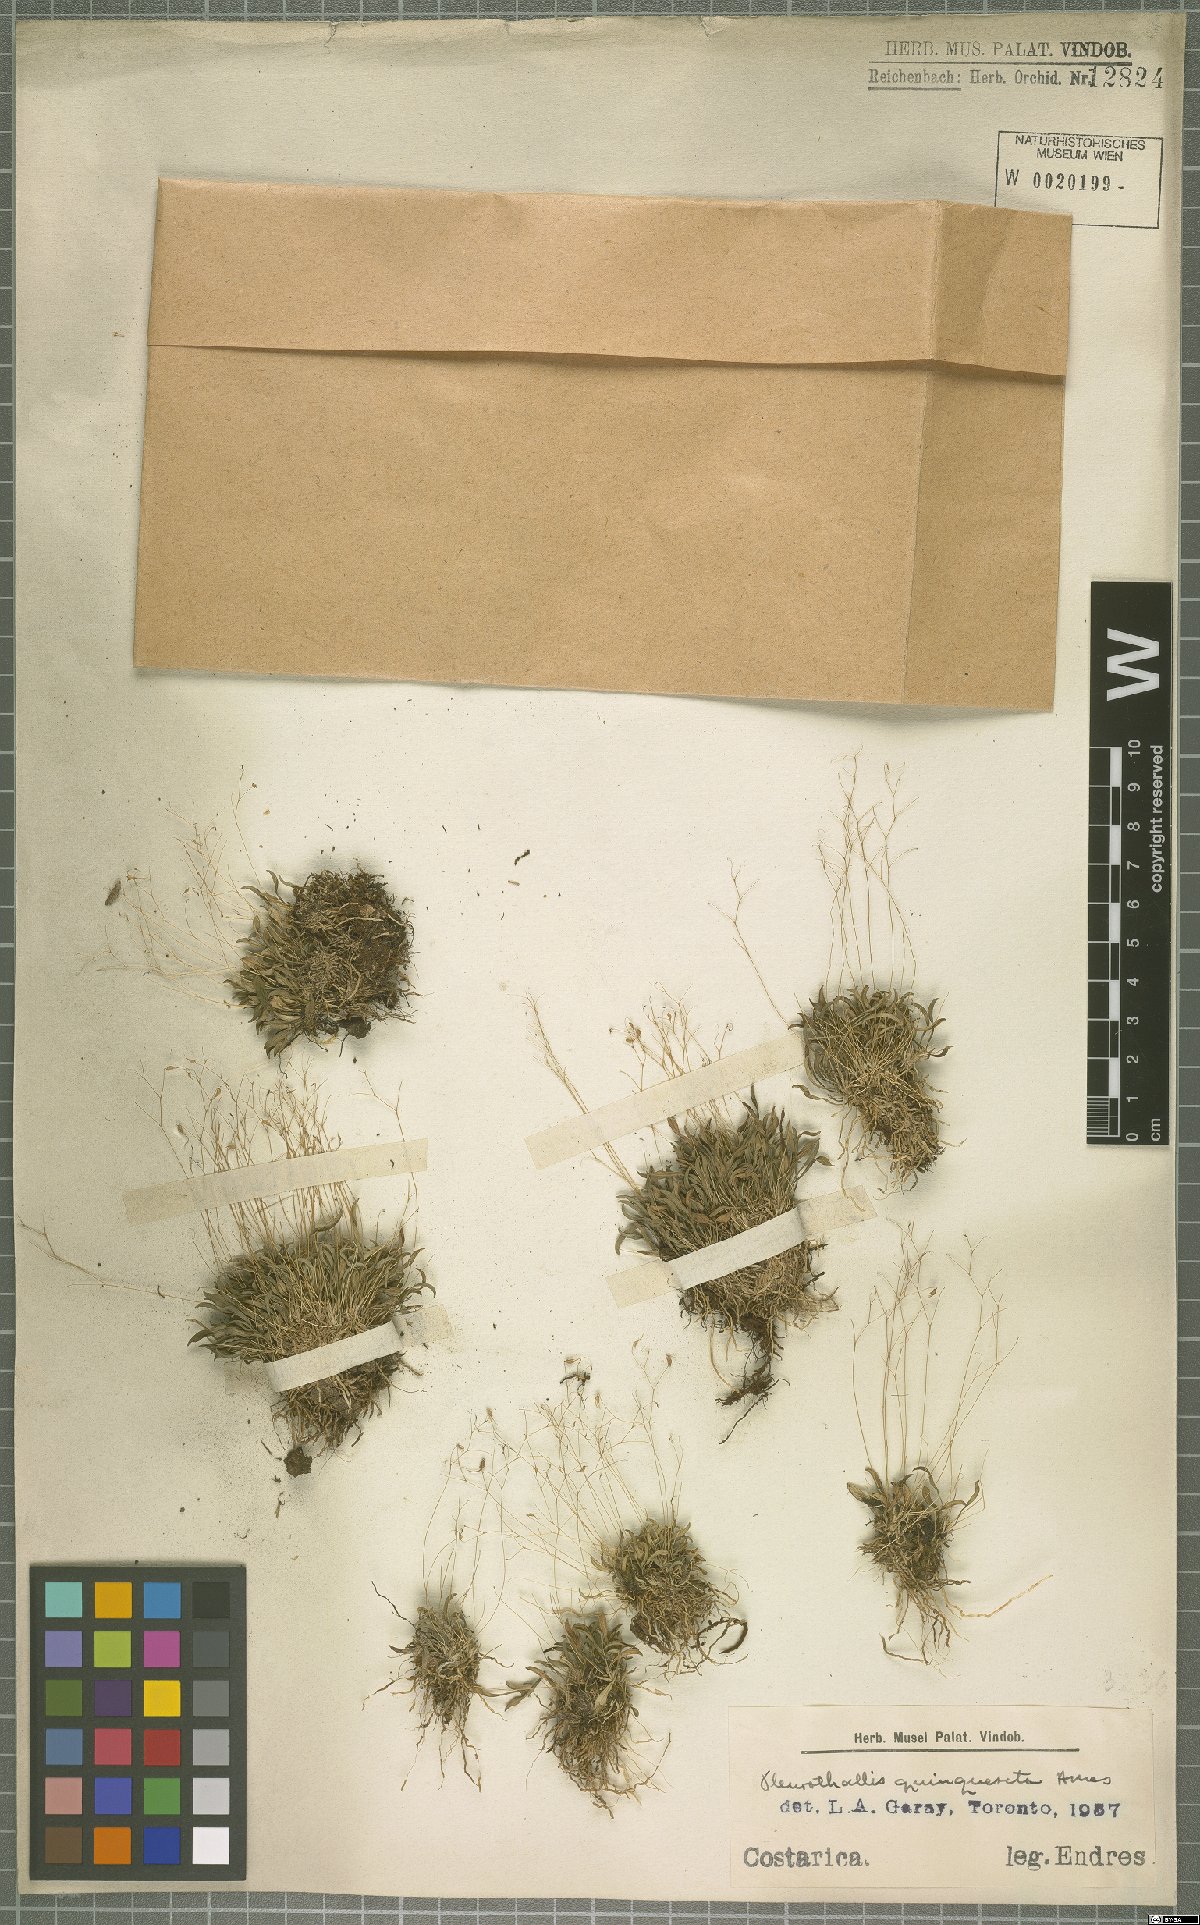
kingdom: Plantae
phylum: Tracheophyta
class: Liliopsida
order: Asparagales
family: Orchidaceae
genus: Muscarella
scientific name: Muscarella quinqueseta
